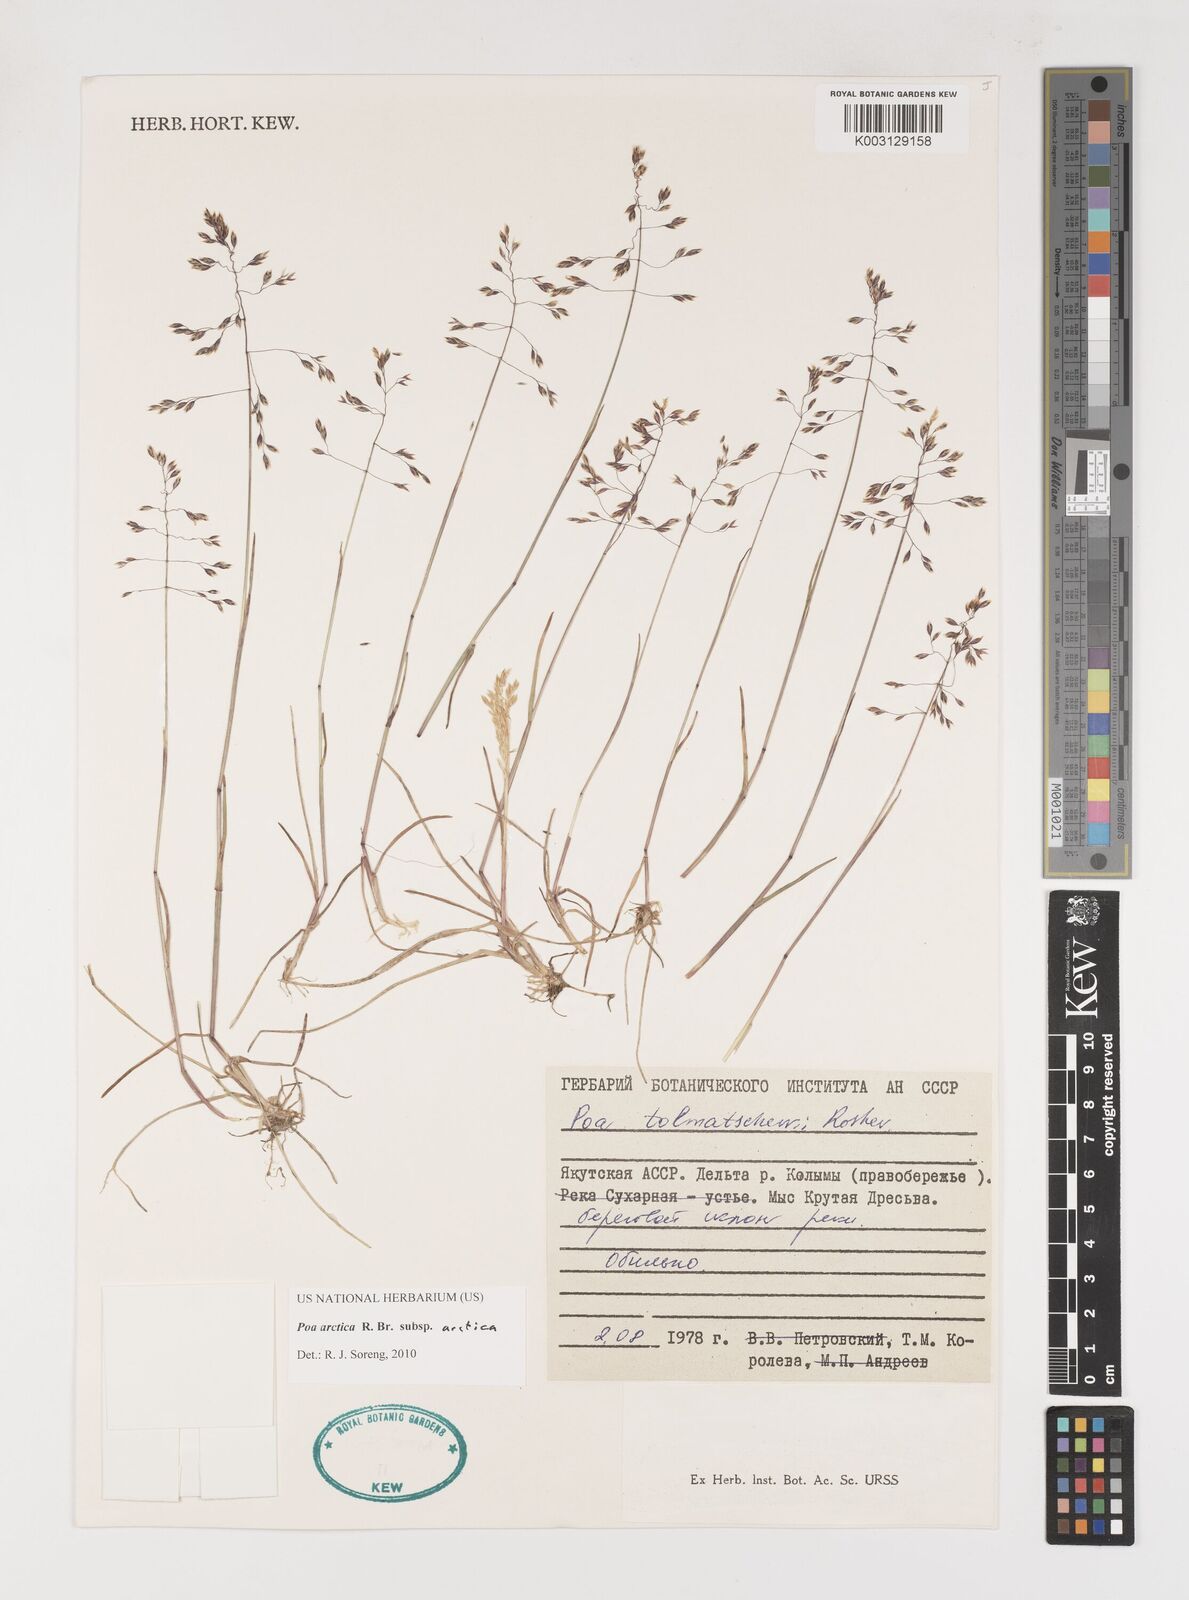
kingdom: Plantae
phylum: Tracheophyta
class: Liliopsida
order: Poales
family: Poaceae
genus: Poa
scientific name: Poa arctica
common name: Arctic bluegrass
